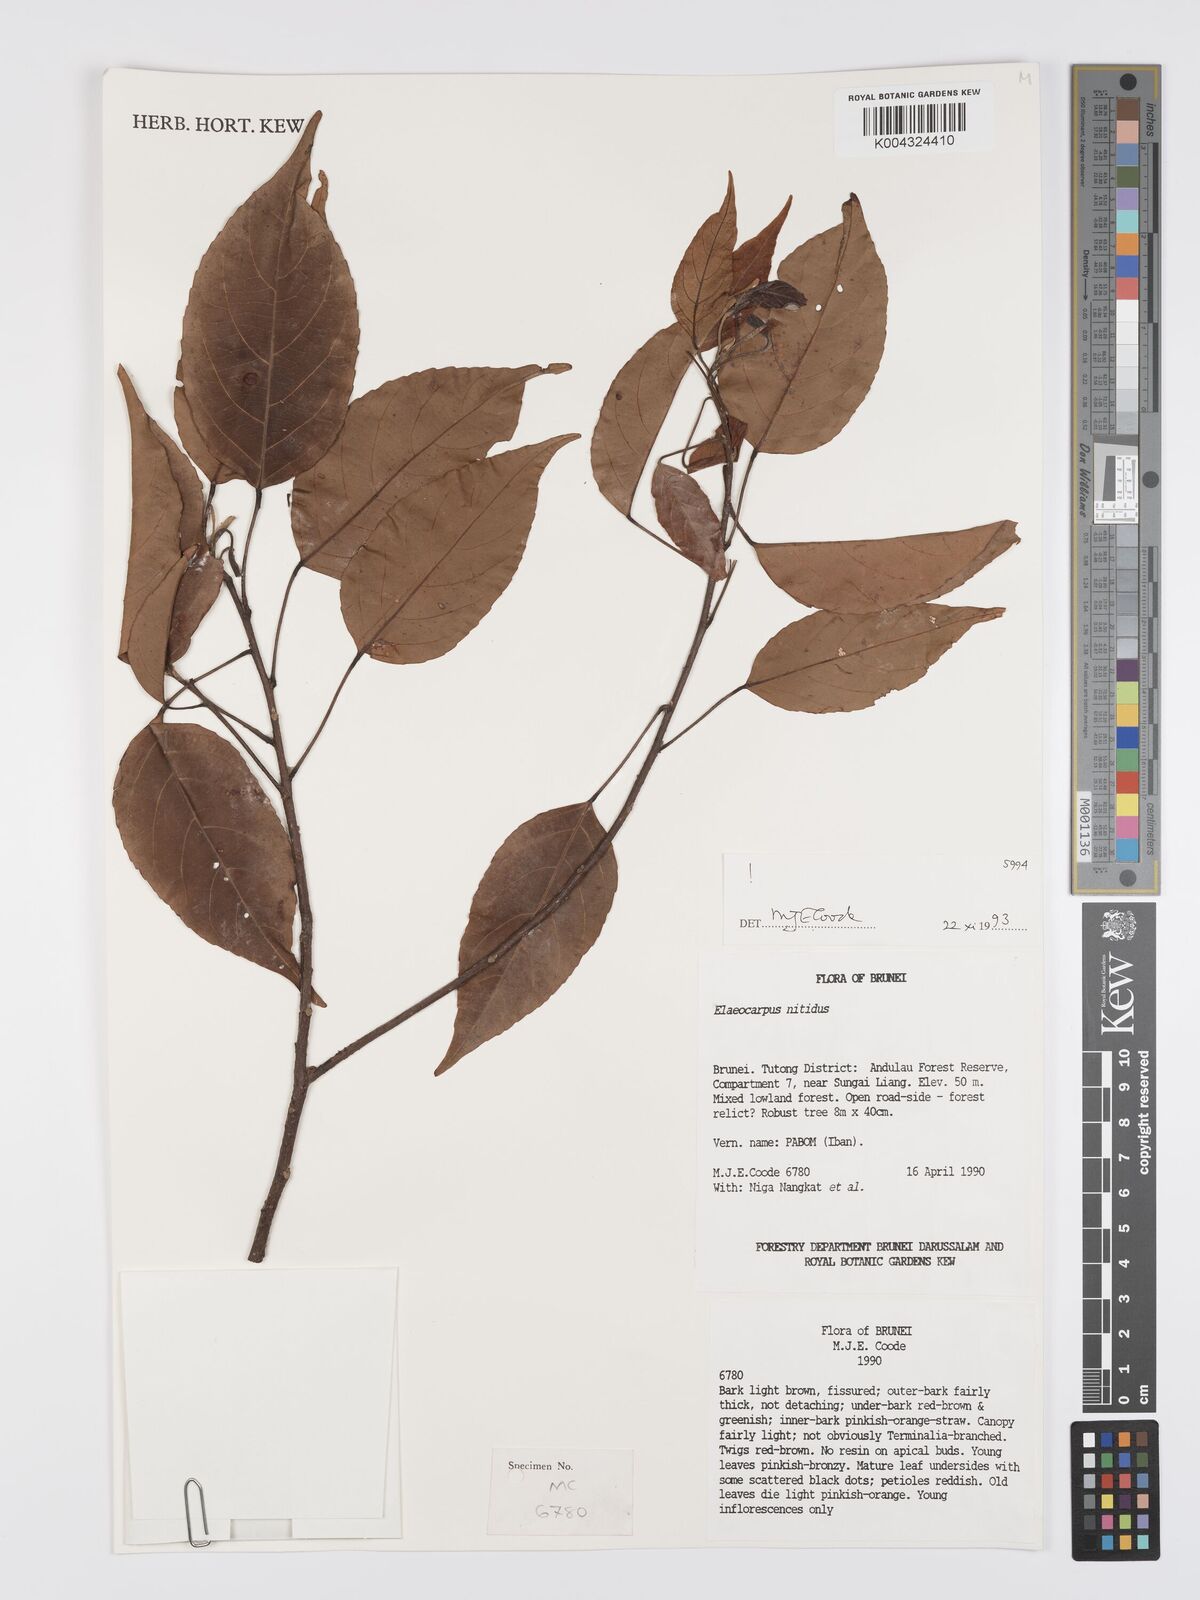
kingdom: Plantae
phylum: Tracheophyta
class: Magnoliopsida
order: Oxalidales
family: Elaeocarpaceae
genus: Elaeocarpus
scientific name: Elaeocarpus nitidus
